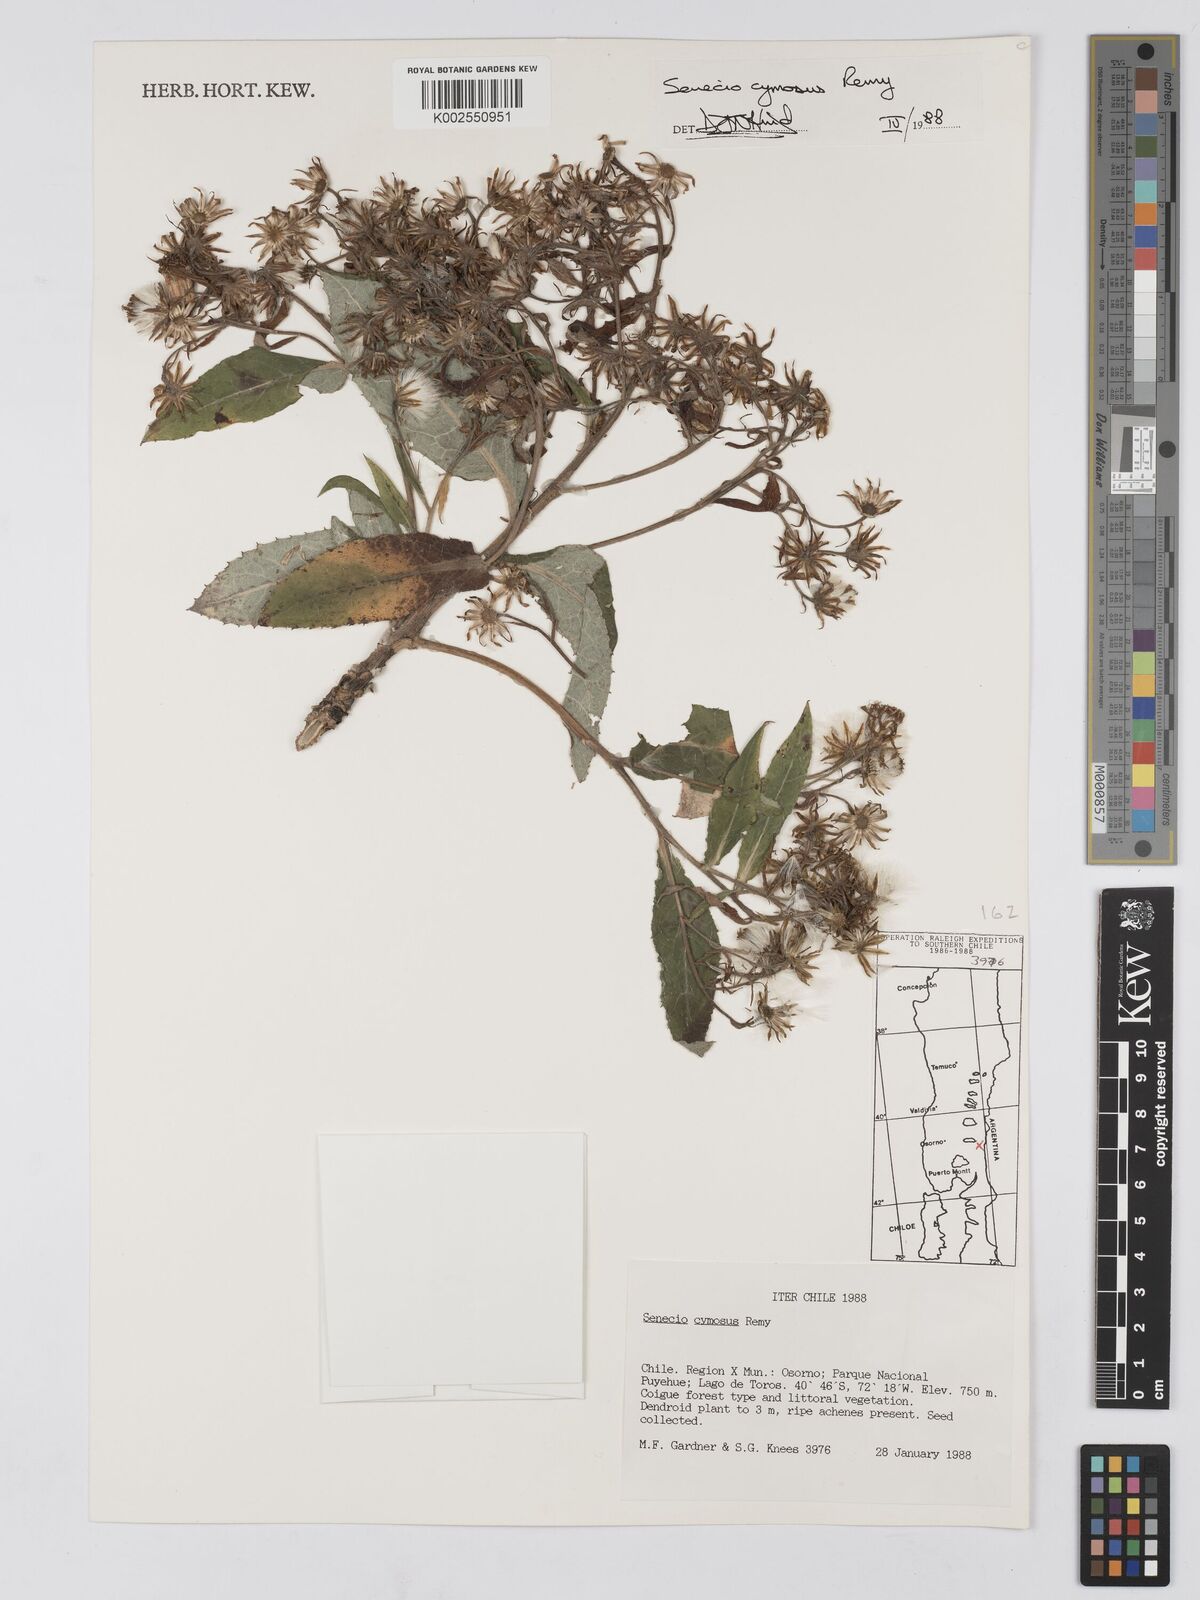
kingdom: Plantae
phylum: Tracheophyta
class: Magnoliopsida
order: Asterales
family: Asteraceae
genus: Acrisione
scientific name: Acrisione cymosa
